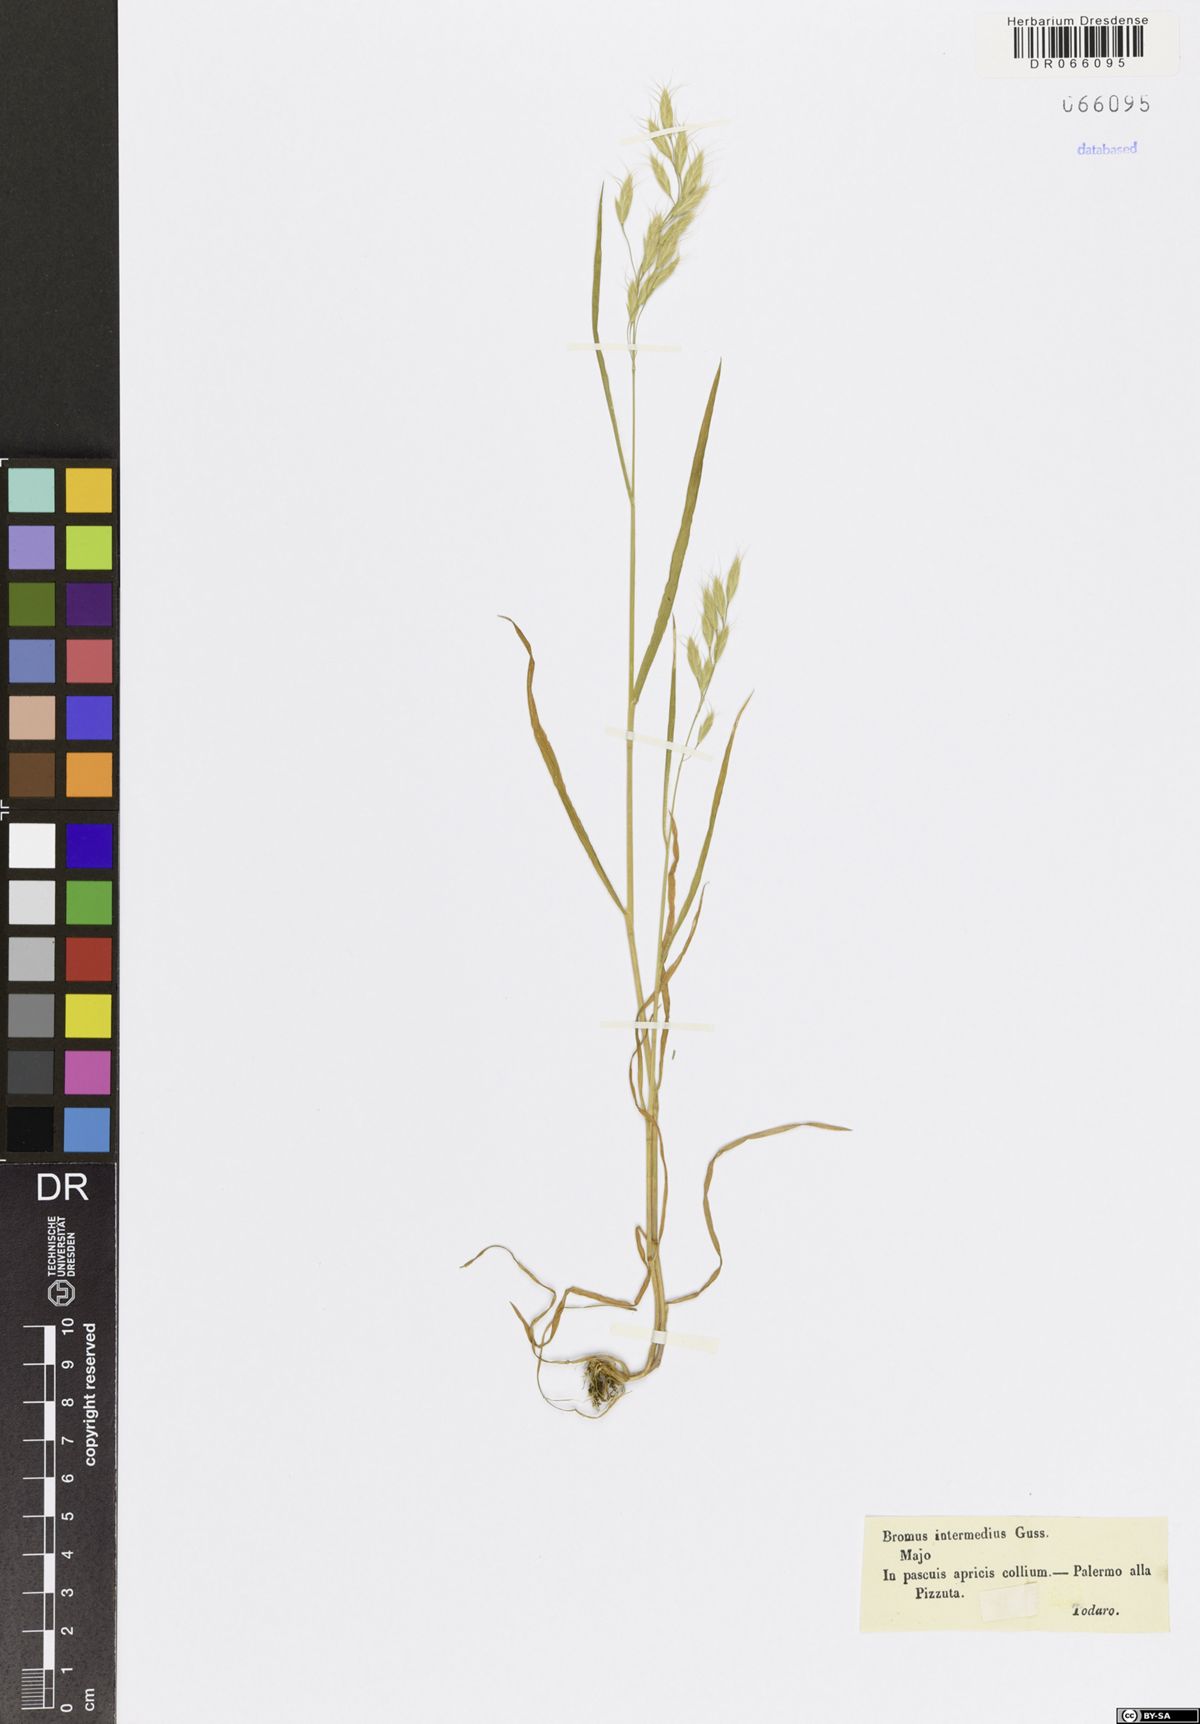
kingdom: Plantae
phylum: Tracheophyta
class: Liliopsida
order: Poales
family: Poaceae
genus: Bromus
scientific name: Bromus intermedius
